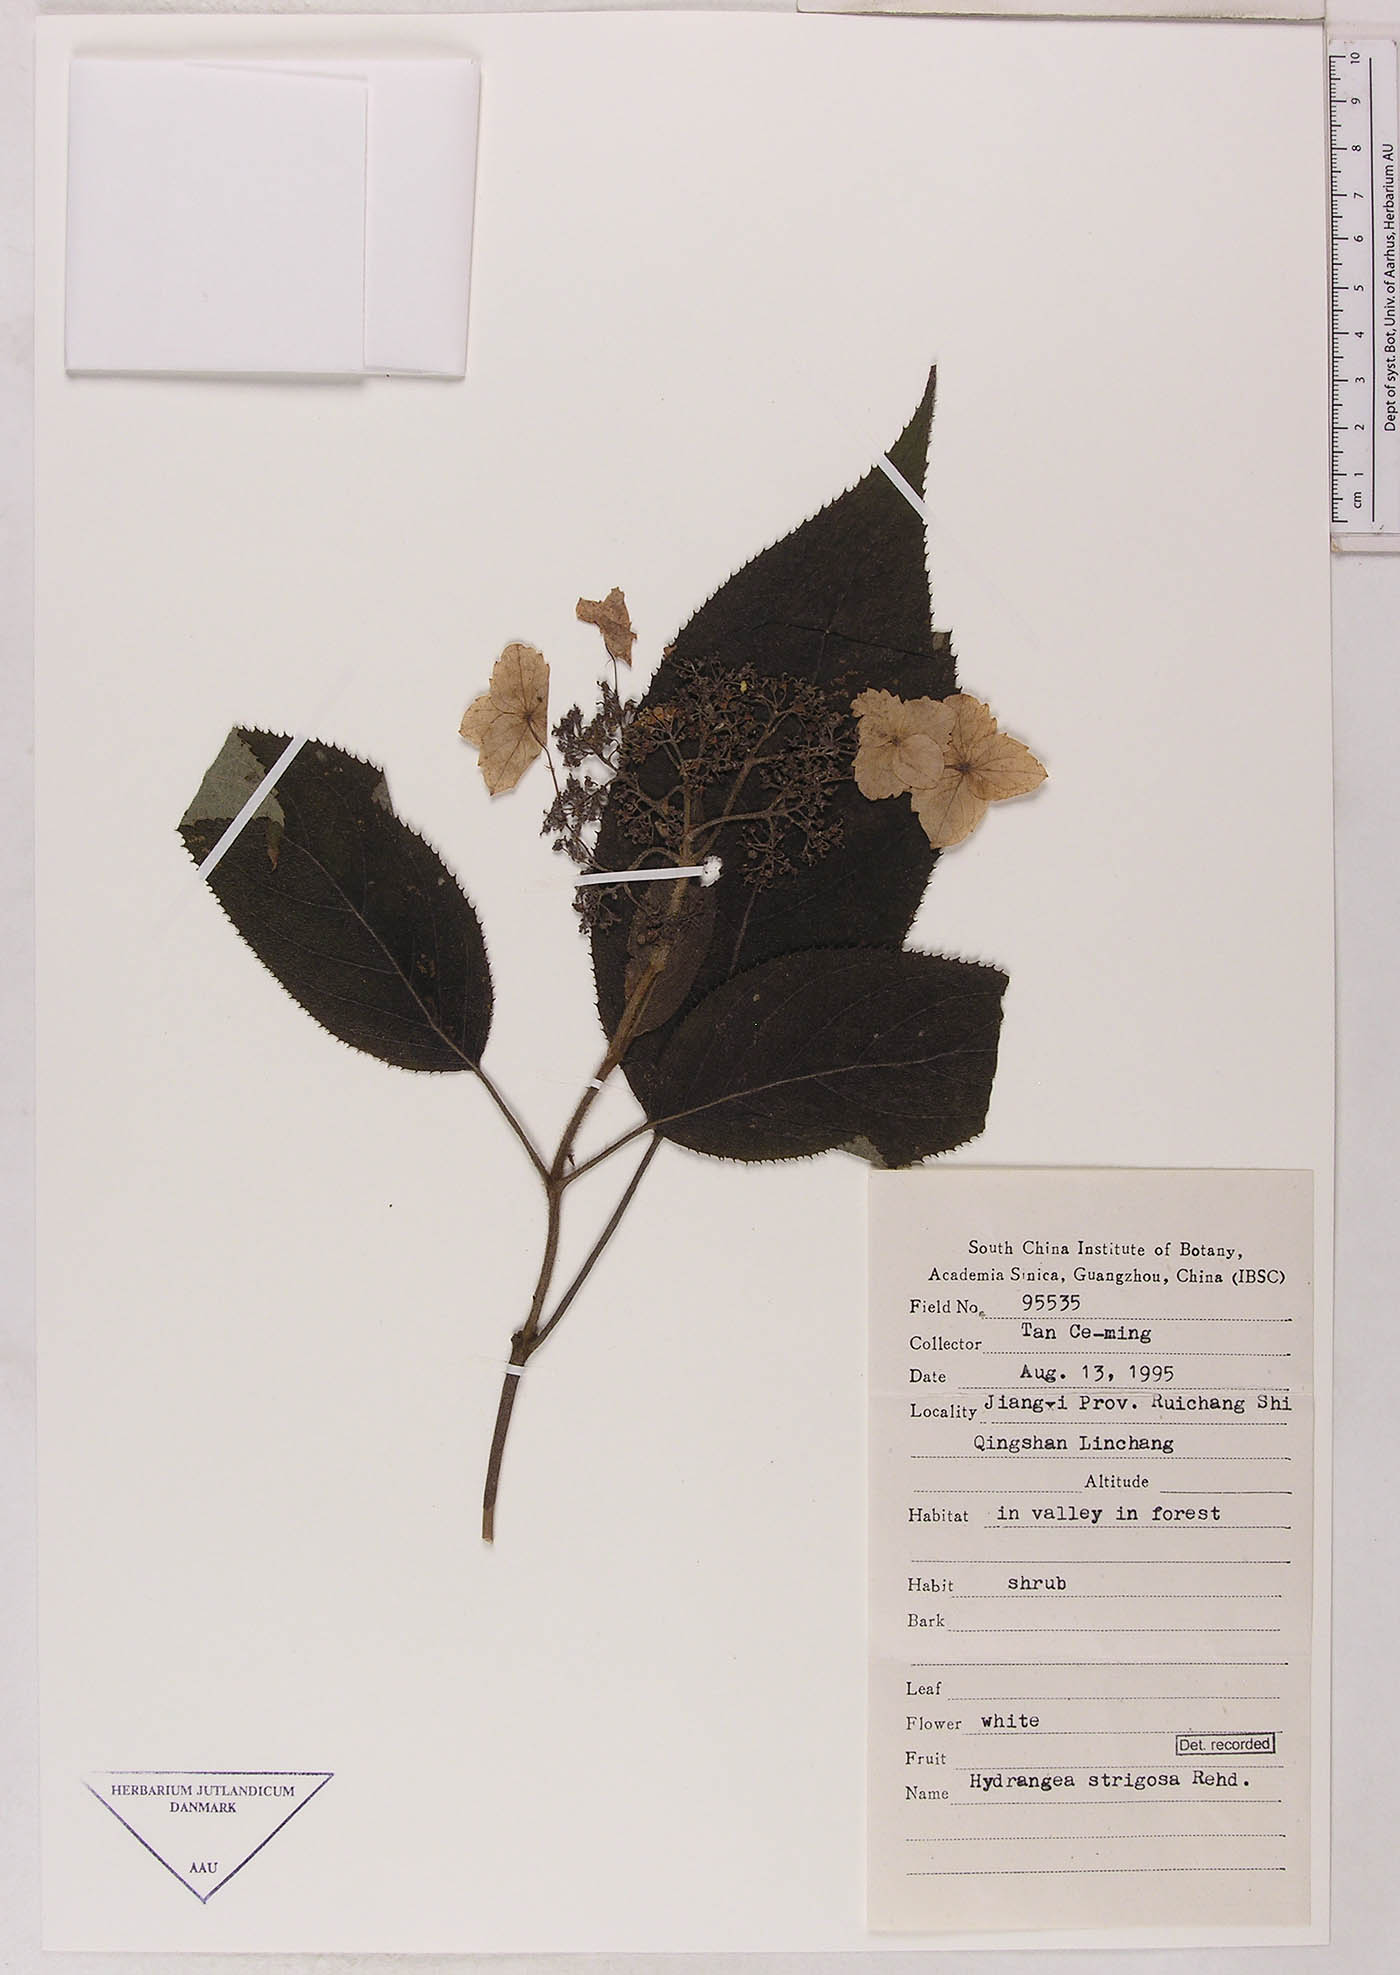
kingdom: Plantae
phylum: Tracheophyta
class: Magnoliopsida
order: Cornales
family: Hydrangeaceae
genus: Hydrangea
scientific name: Hydrangea strigosa
